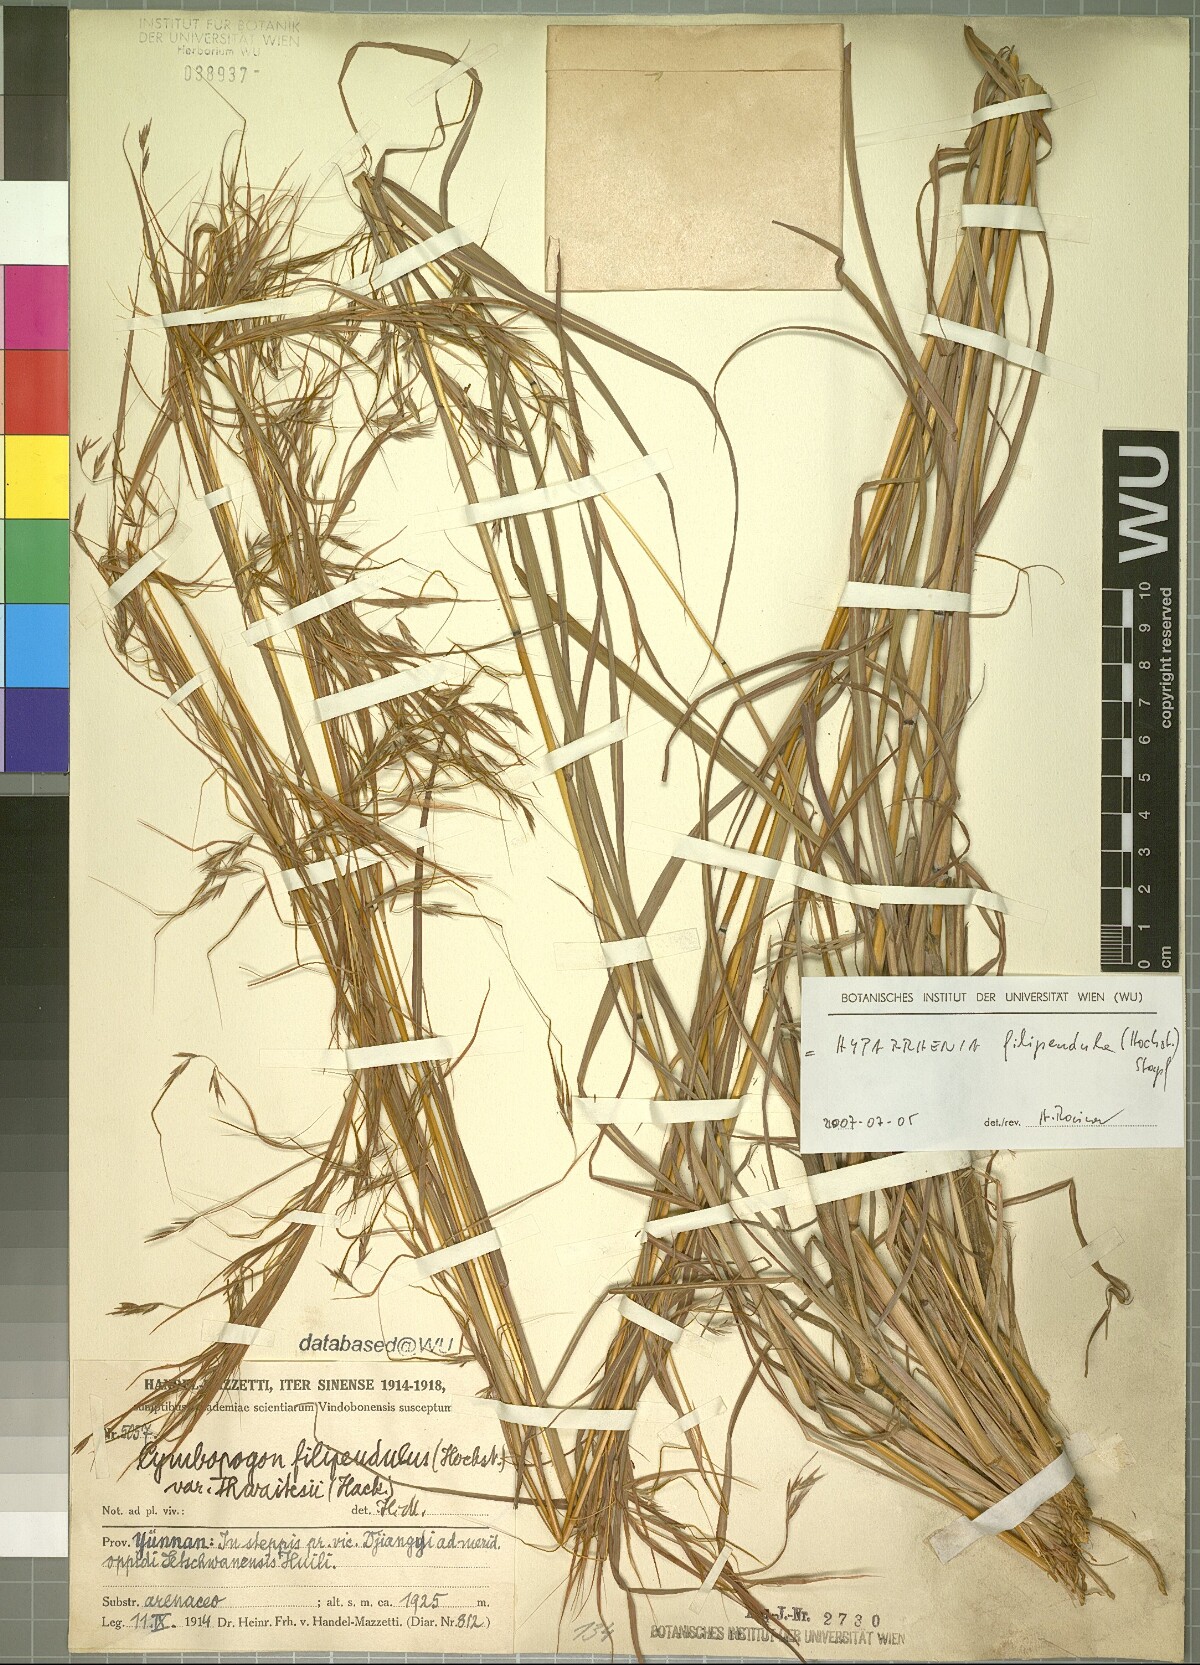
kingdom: Plantae
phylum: Tracheophyta
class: Liliopsida
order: Poales
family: Poaceae
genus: Hyparrhenia
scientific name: Hyparrhenia filipendula
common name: Tambookie grass
